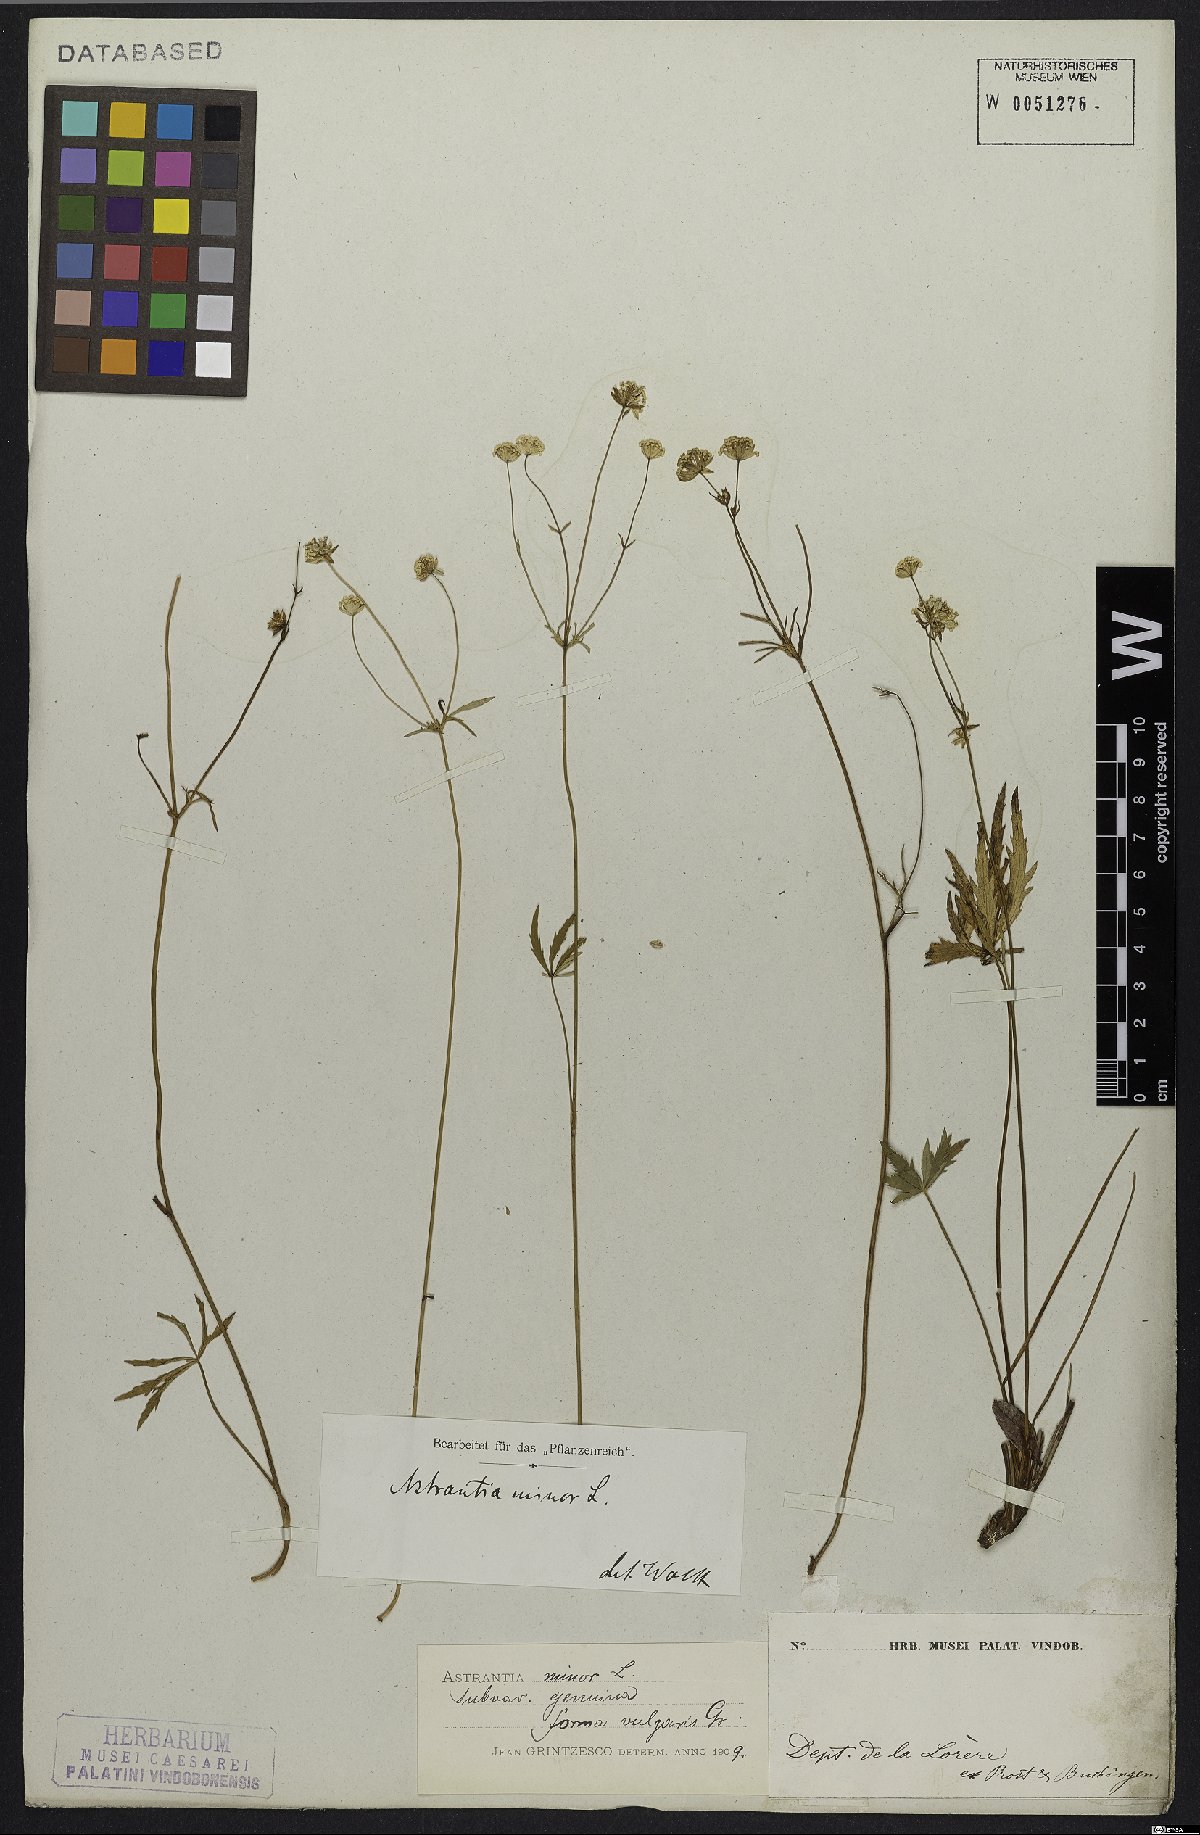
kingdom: Plantae
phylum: Tracheophyta
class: Magnoliopsida
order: Apiales
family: Apiaceae
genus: Astrantia
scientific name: Astrantia minor
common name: Lesser masterwort
